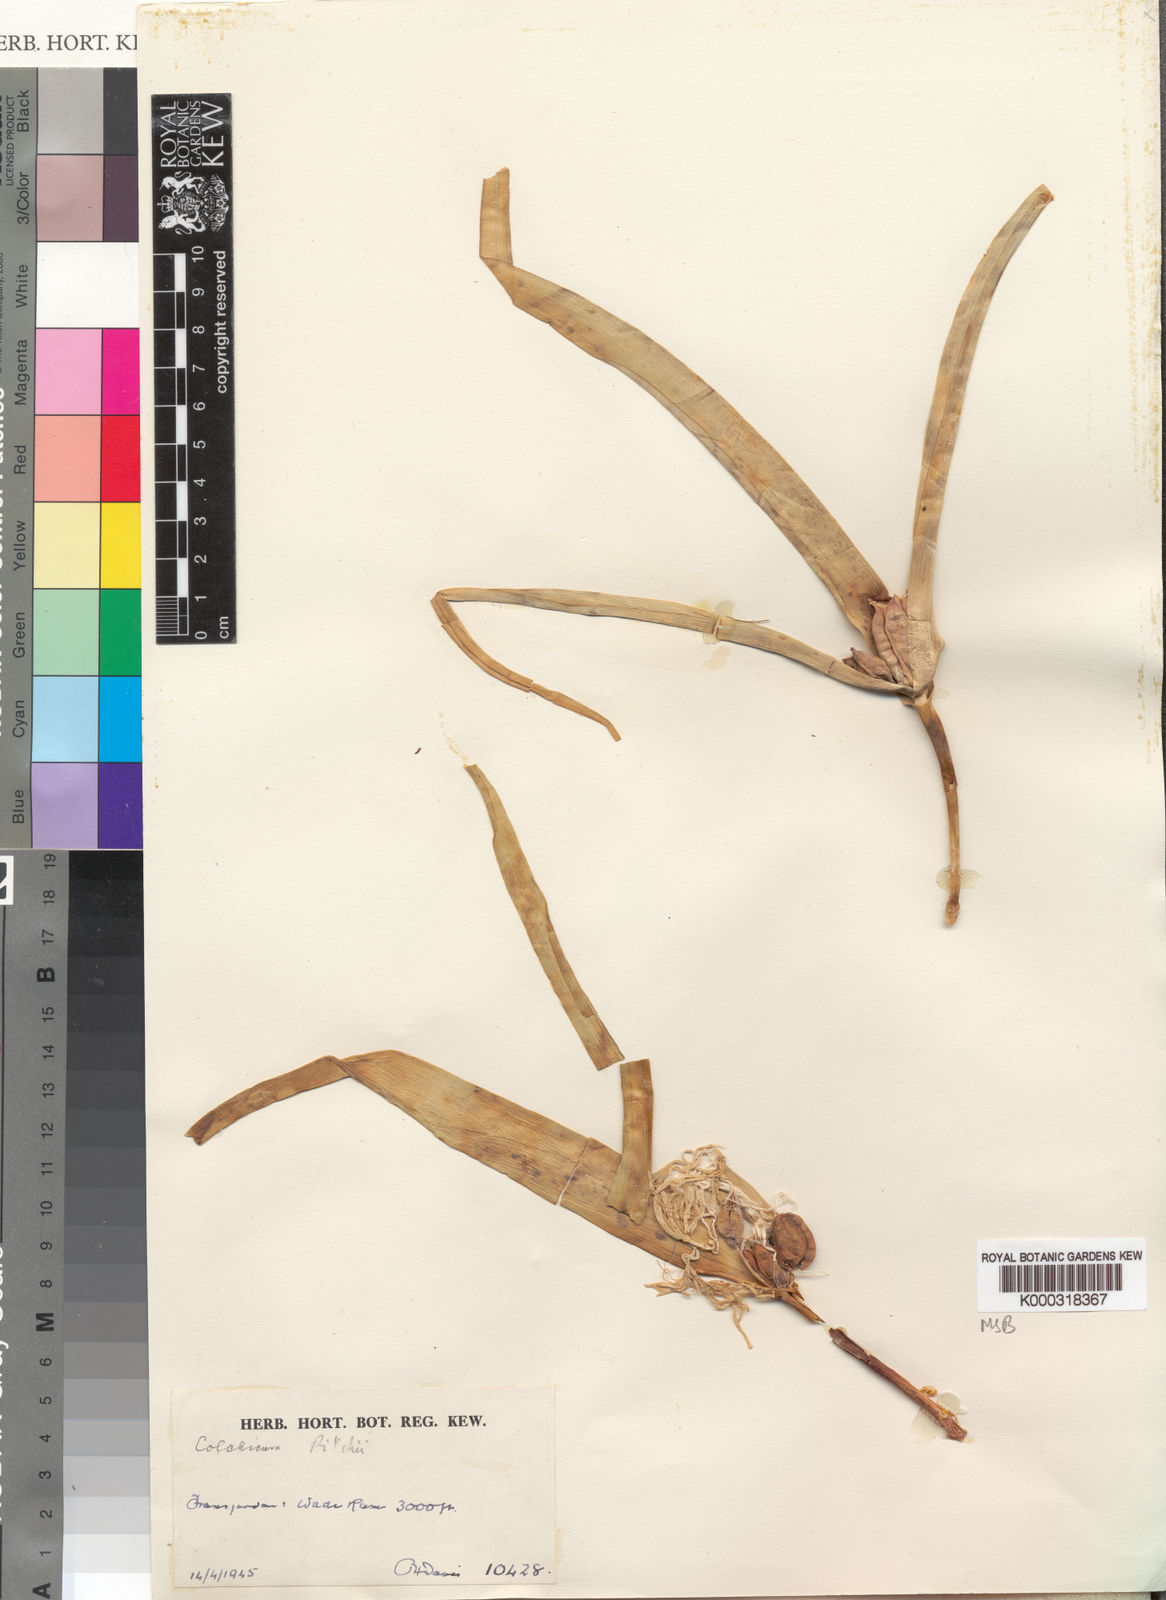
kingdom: Plantae
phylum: Tracheophyta
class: Liliopsida
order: Liliales
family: Colchicaceae
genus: Colchicum
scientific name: Colchicum ritchii
